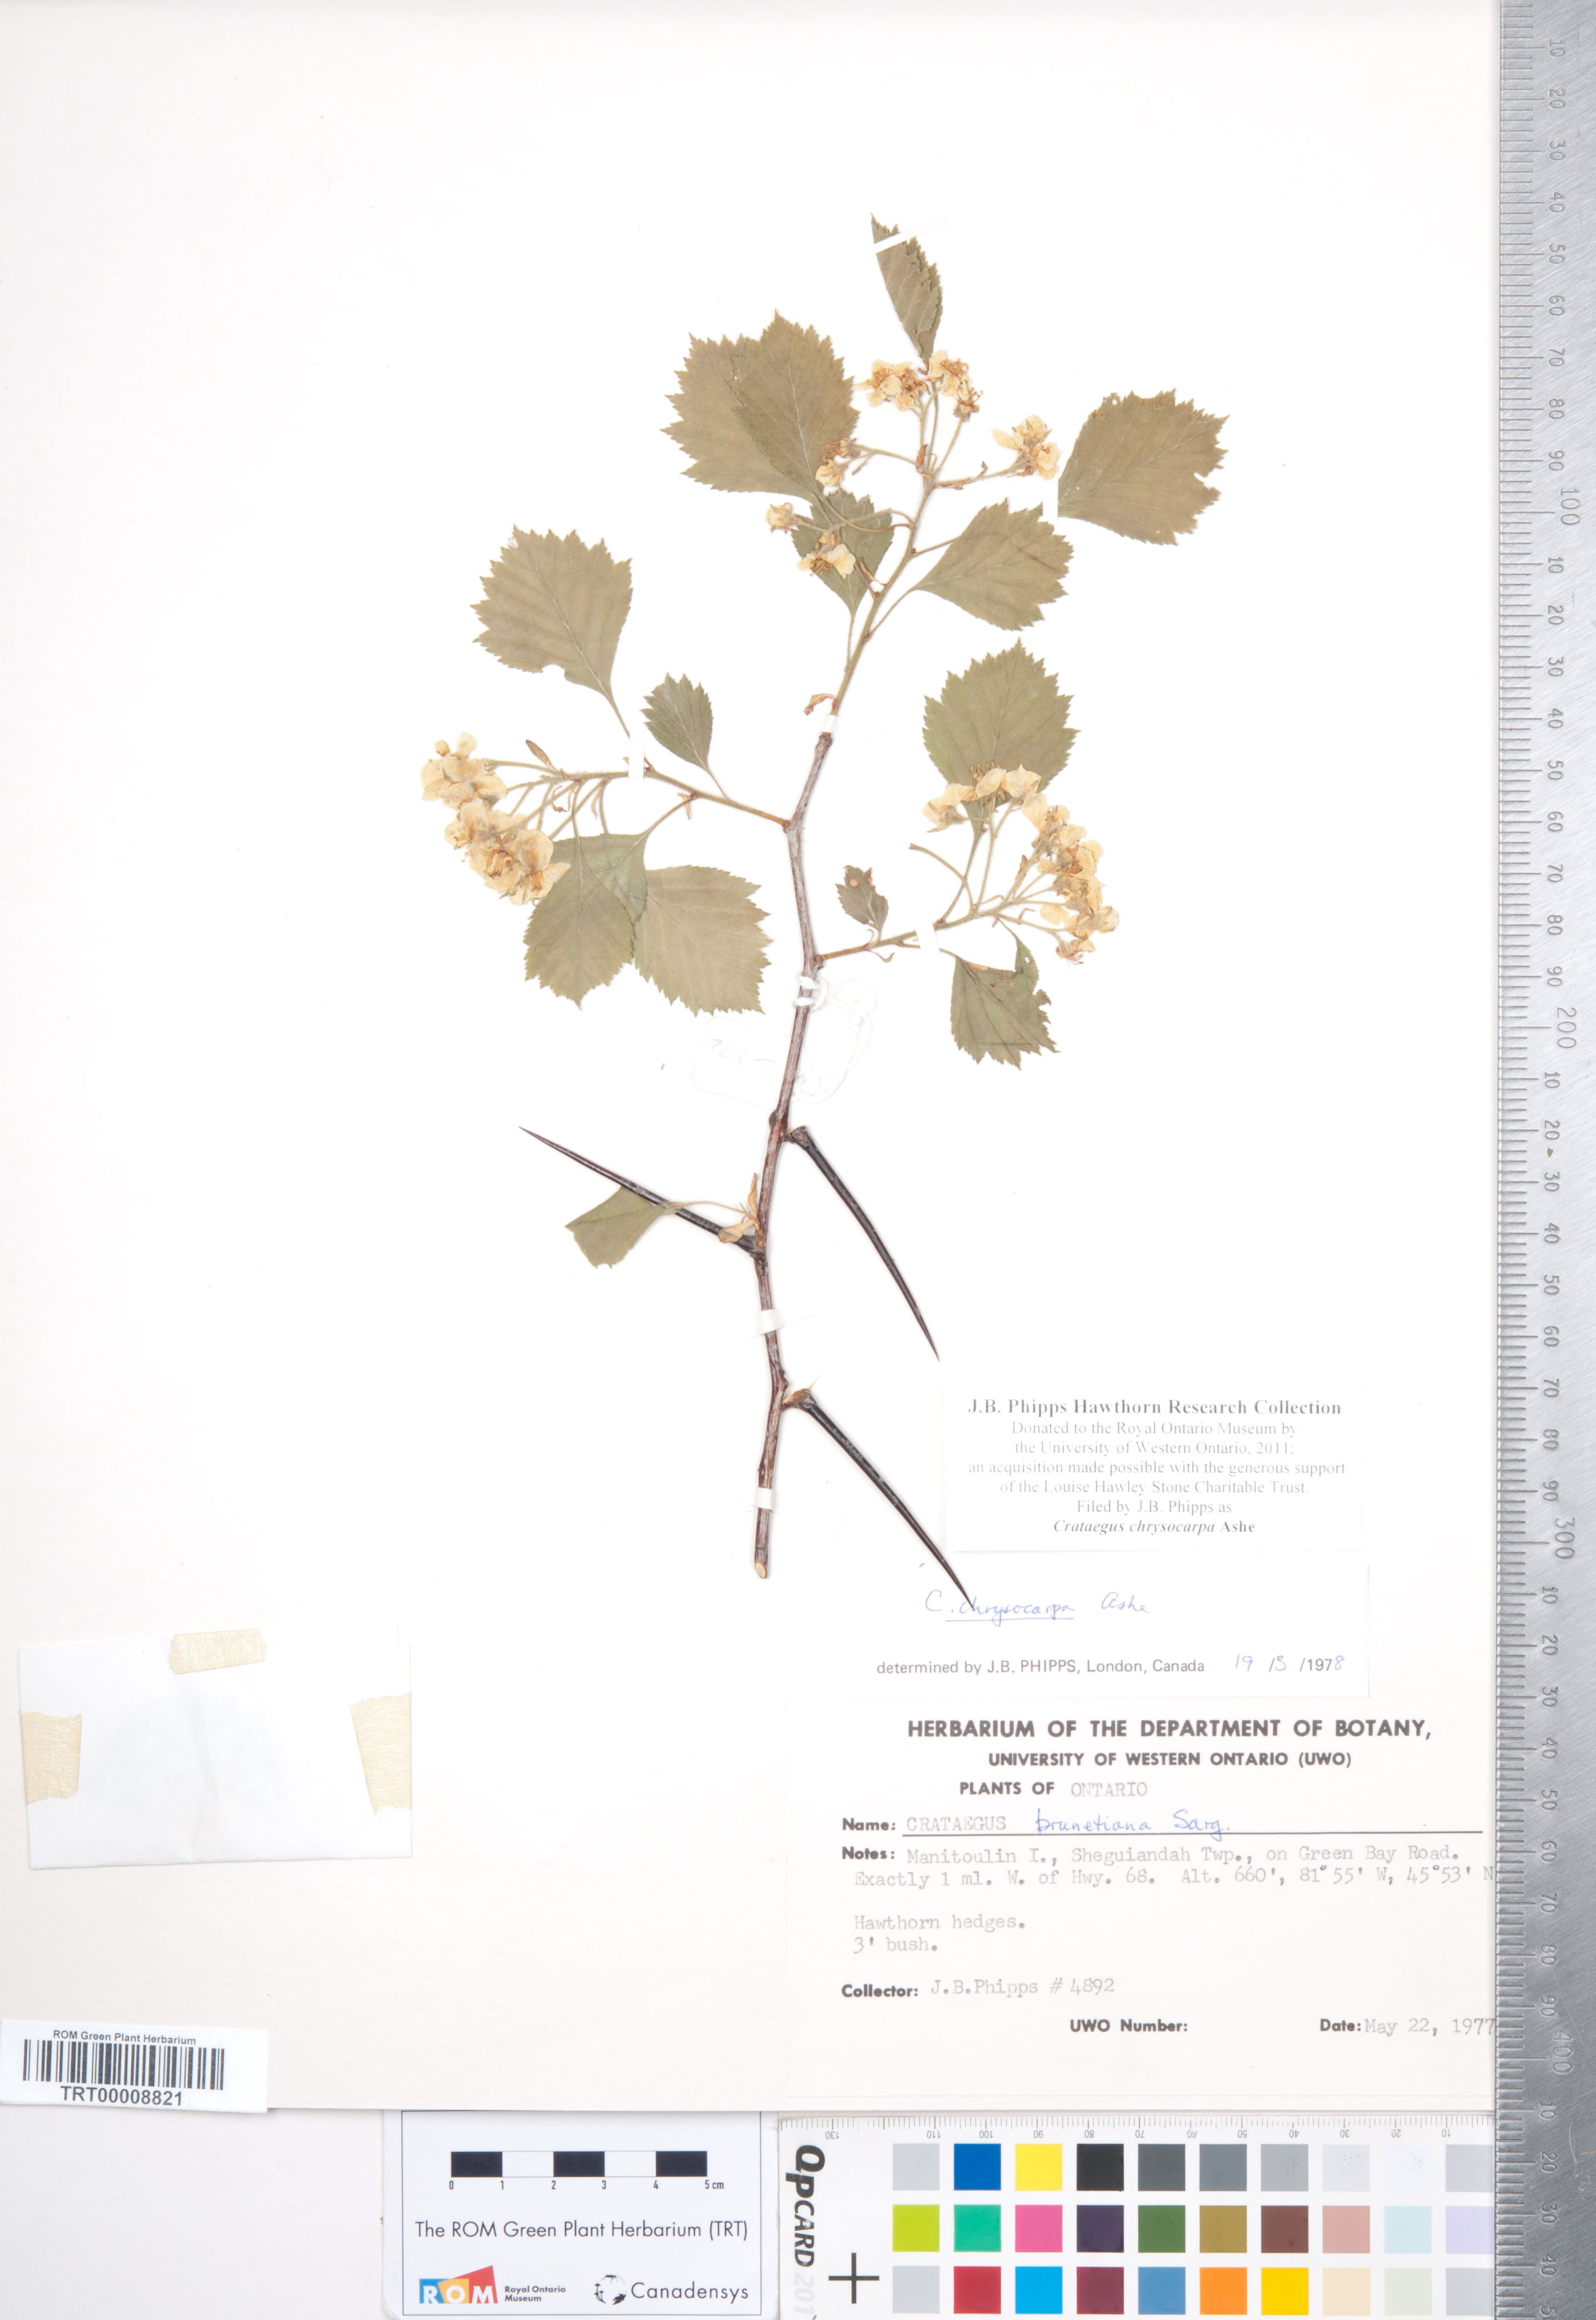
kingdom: Plantae
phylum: Tracheophyta
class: Magnoliopsida
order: Rosales
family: Rosaceae
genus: Crataegus
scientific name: Crataegus chrysocarpa
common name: Fire-berry hawthorn
